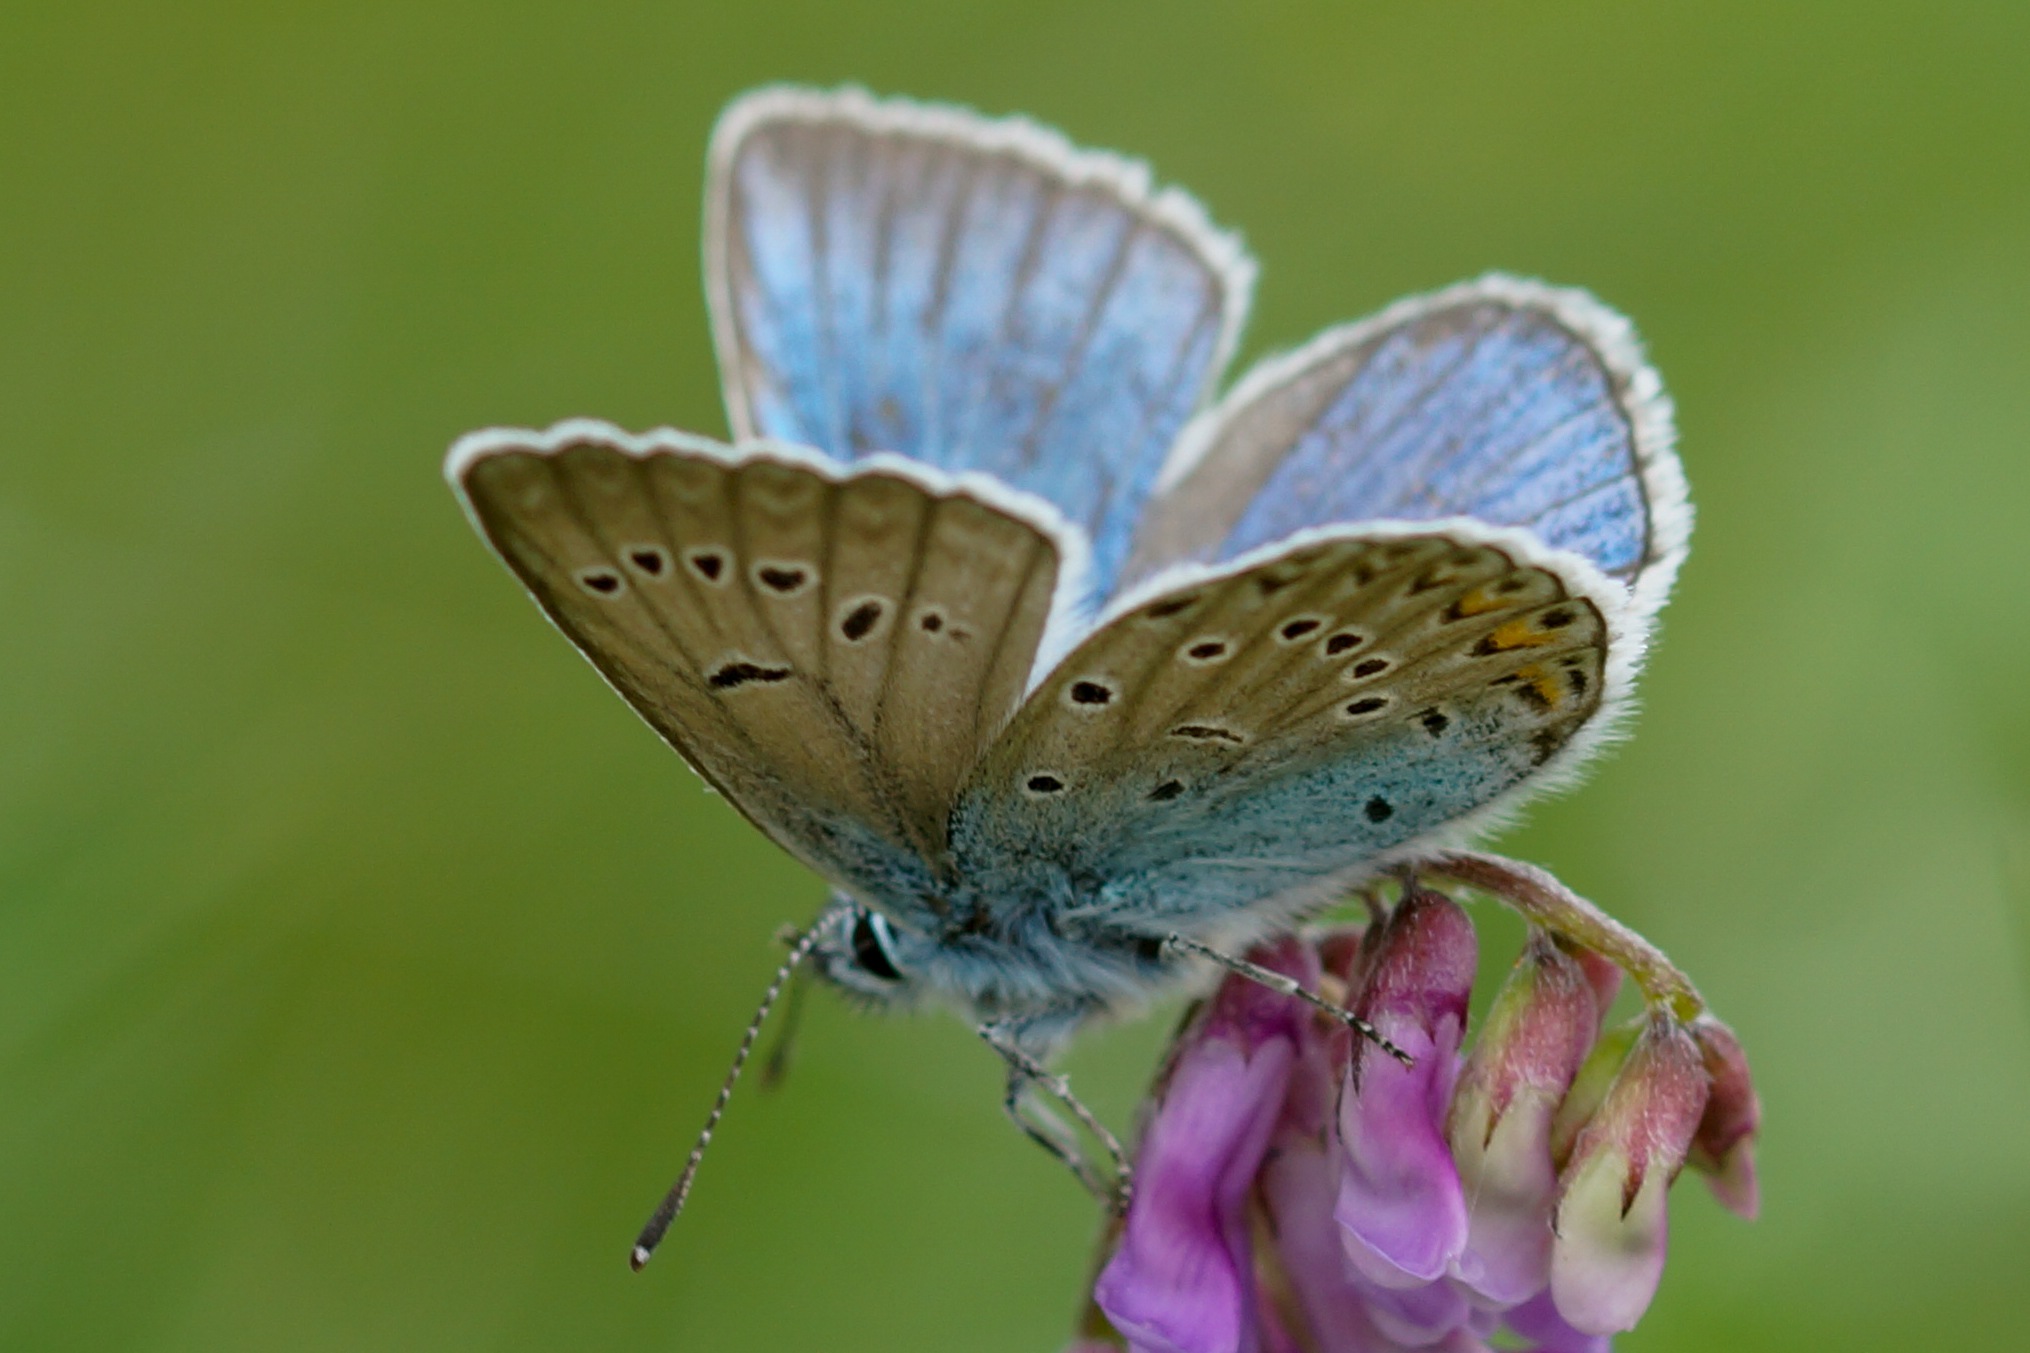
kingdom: Animalia
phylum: Arthropoda
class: Insecta
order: Lepidoptera
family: Lycaenidae
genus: Plebejus
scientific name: Plebejus amanda
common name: Isblåfugl
